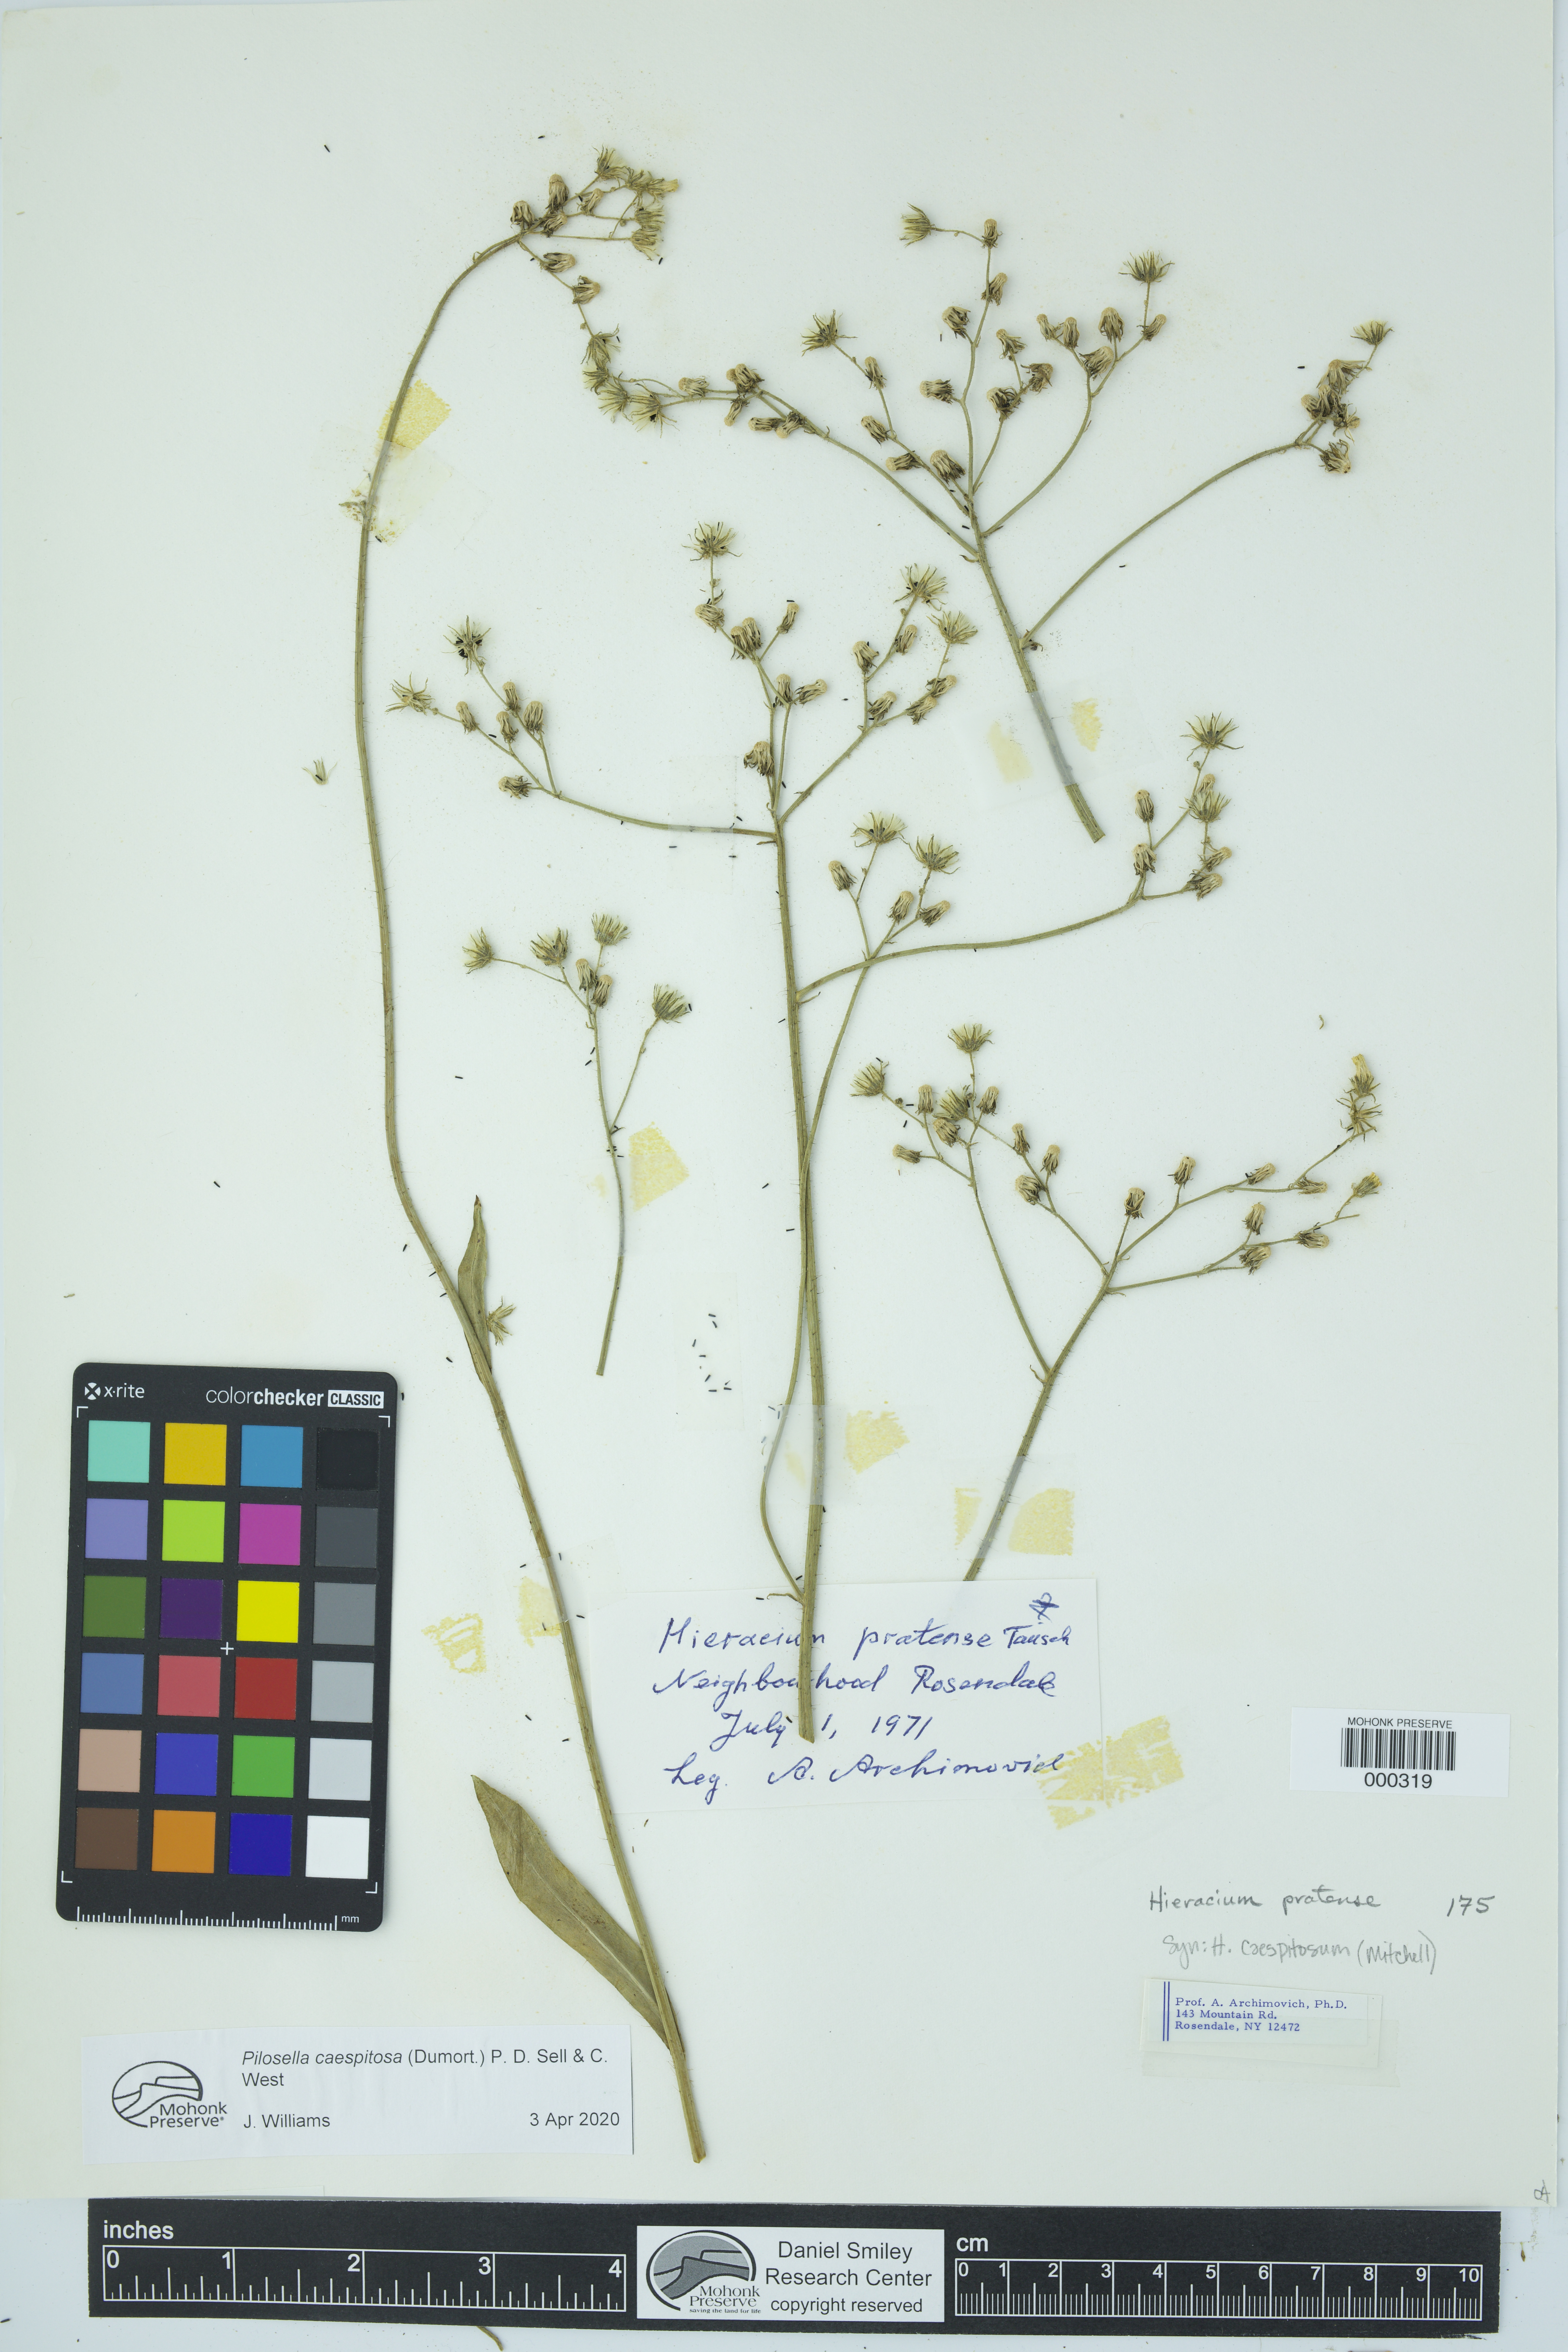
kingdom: Plantae
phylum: Tracheophyta
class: Magnoliopsida
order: Asterales
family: Asteraceae
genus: Pilosella
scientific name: Pilosella caespitosa
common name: Yellow fox-and-cubs
